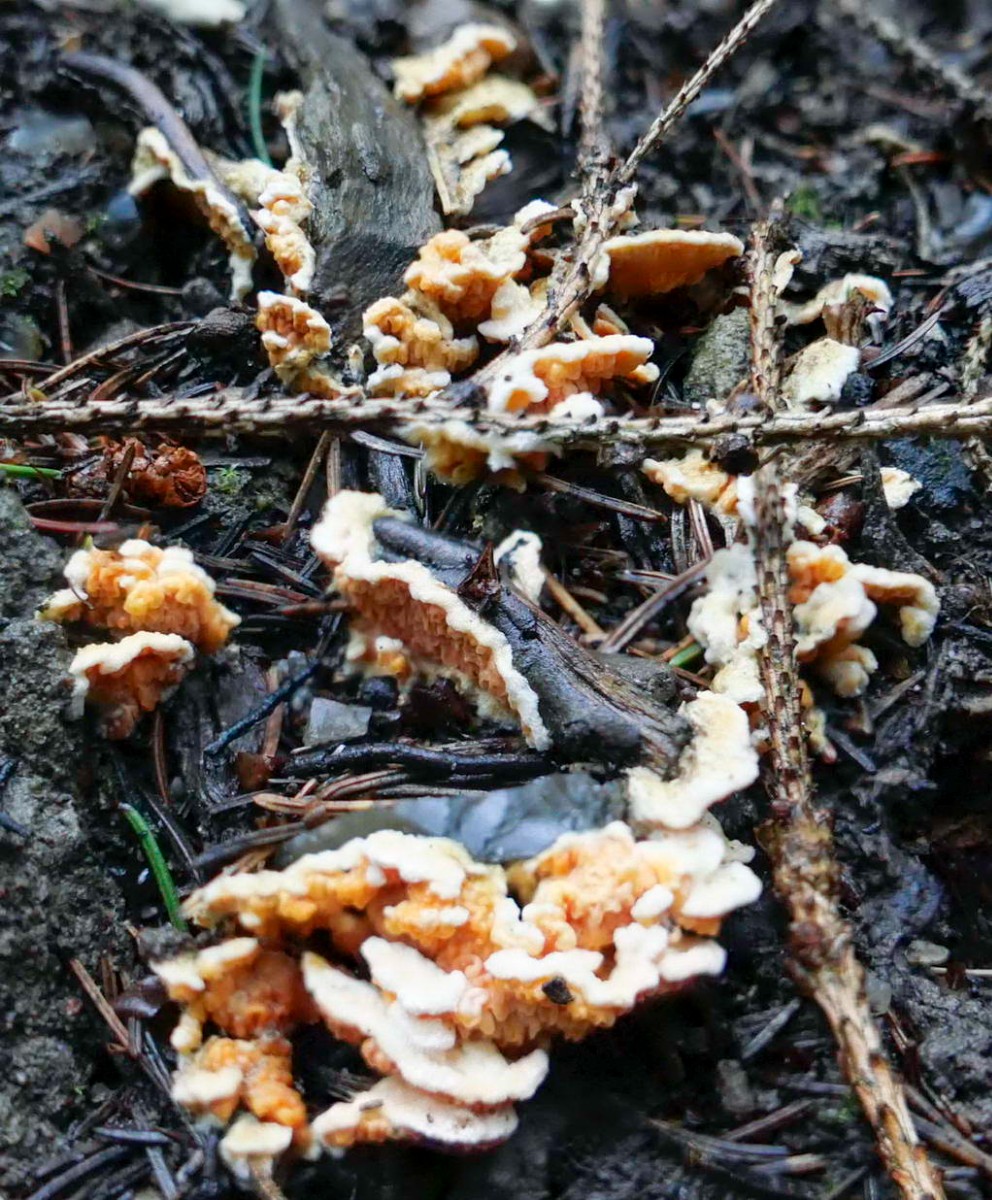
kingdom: Fungi
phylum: Basidiomycota
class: Agaricomycetes
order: Boletales
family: Hygrophoropsidaceae
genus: Leucogyrophana
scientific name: Leucogyrophana
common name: hussvamp
